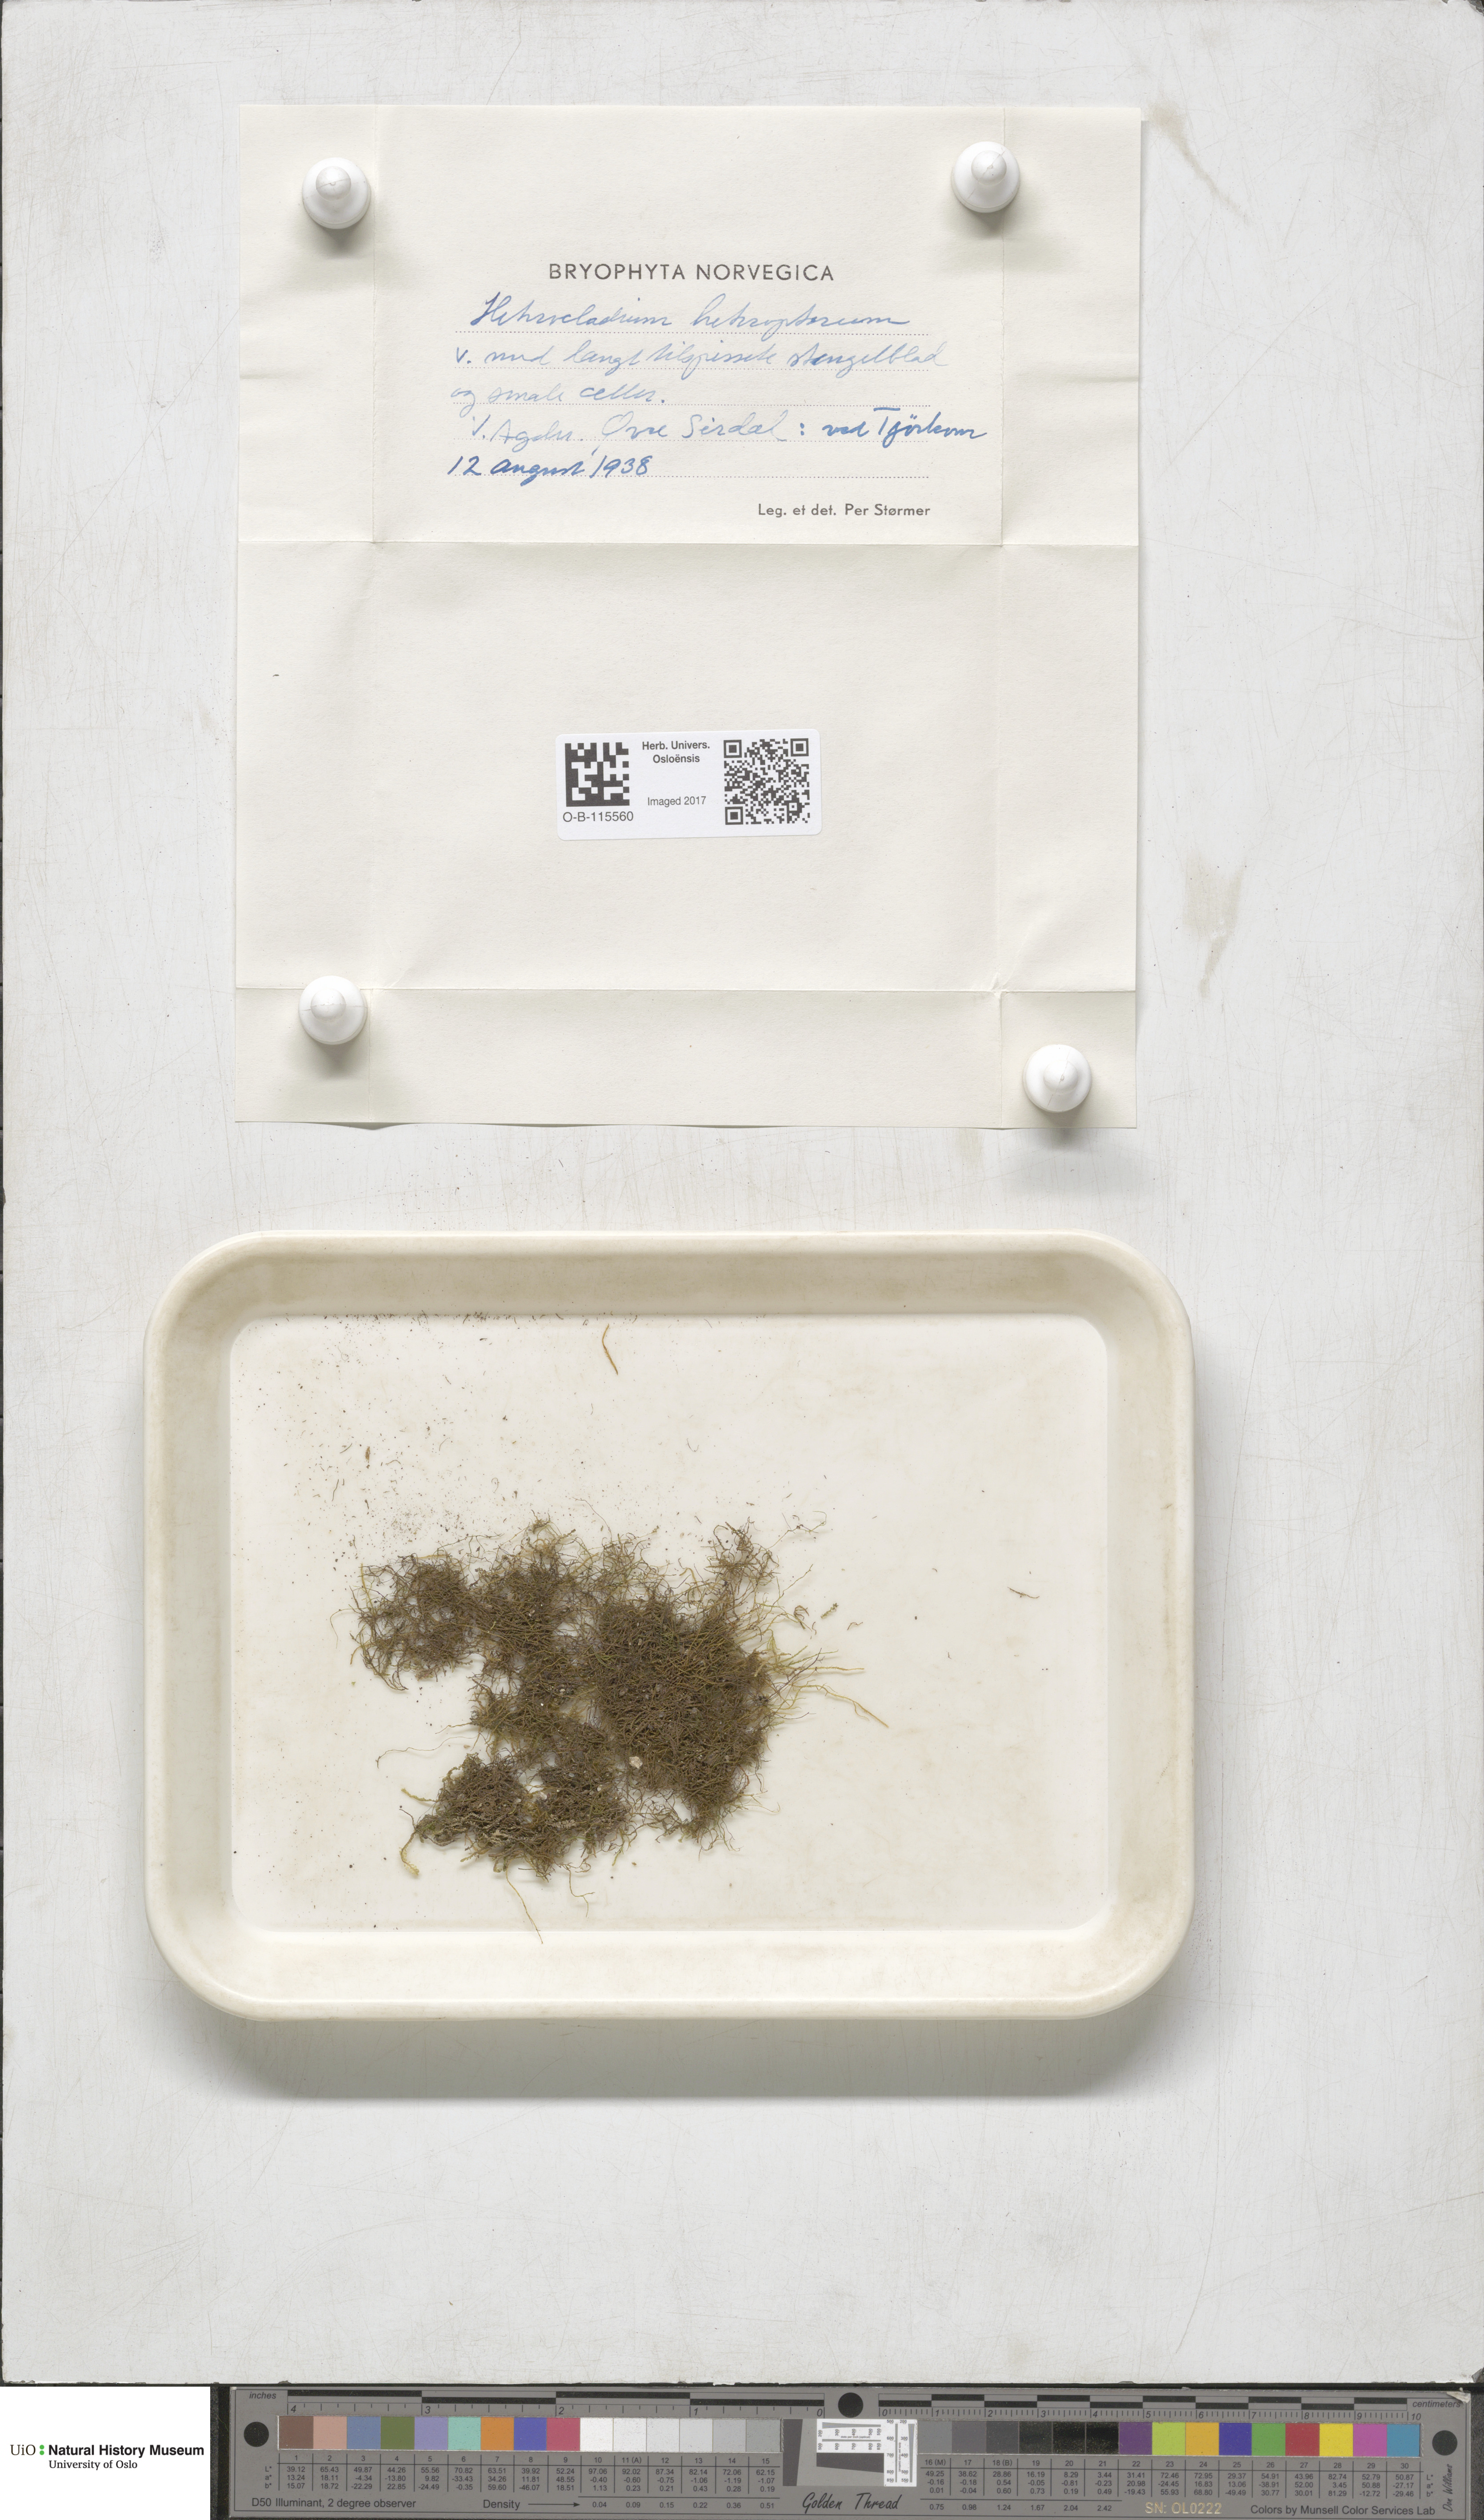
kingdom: Plantae
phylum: Bryophyta
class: Bryopsida
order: Hypnales
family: Lembophyllaceae
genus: Heterocladium
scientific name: Heterocladium heteropterum
